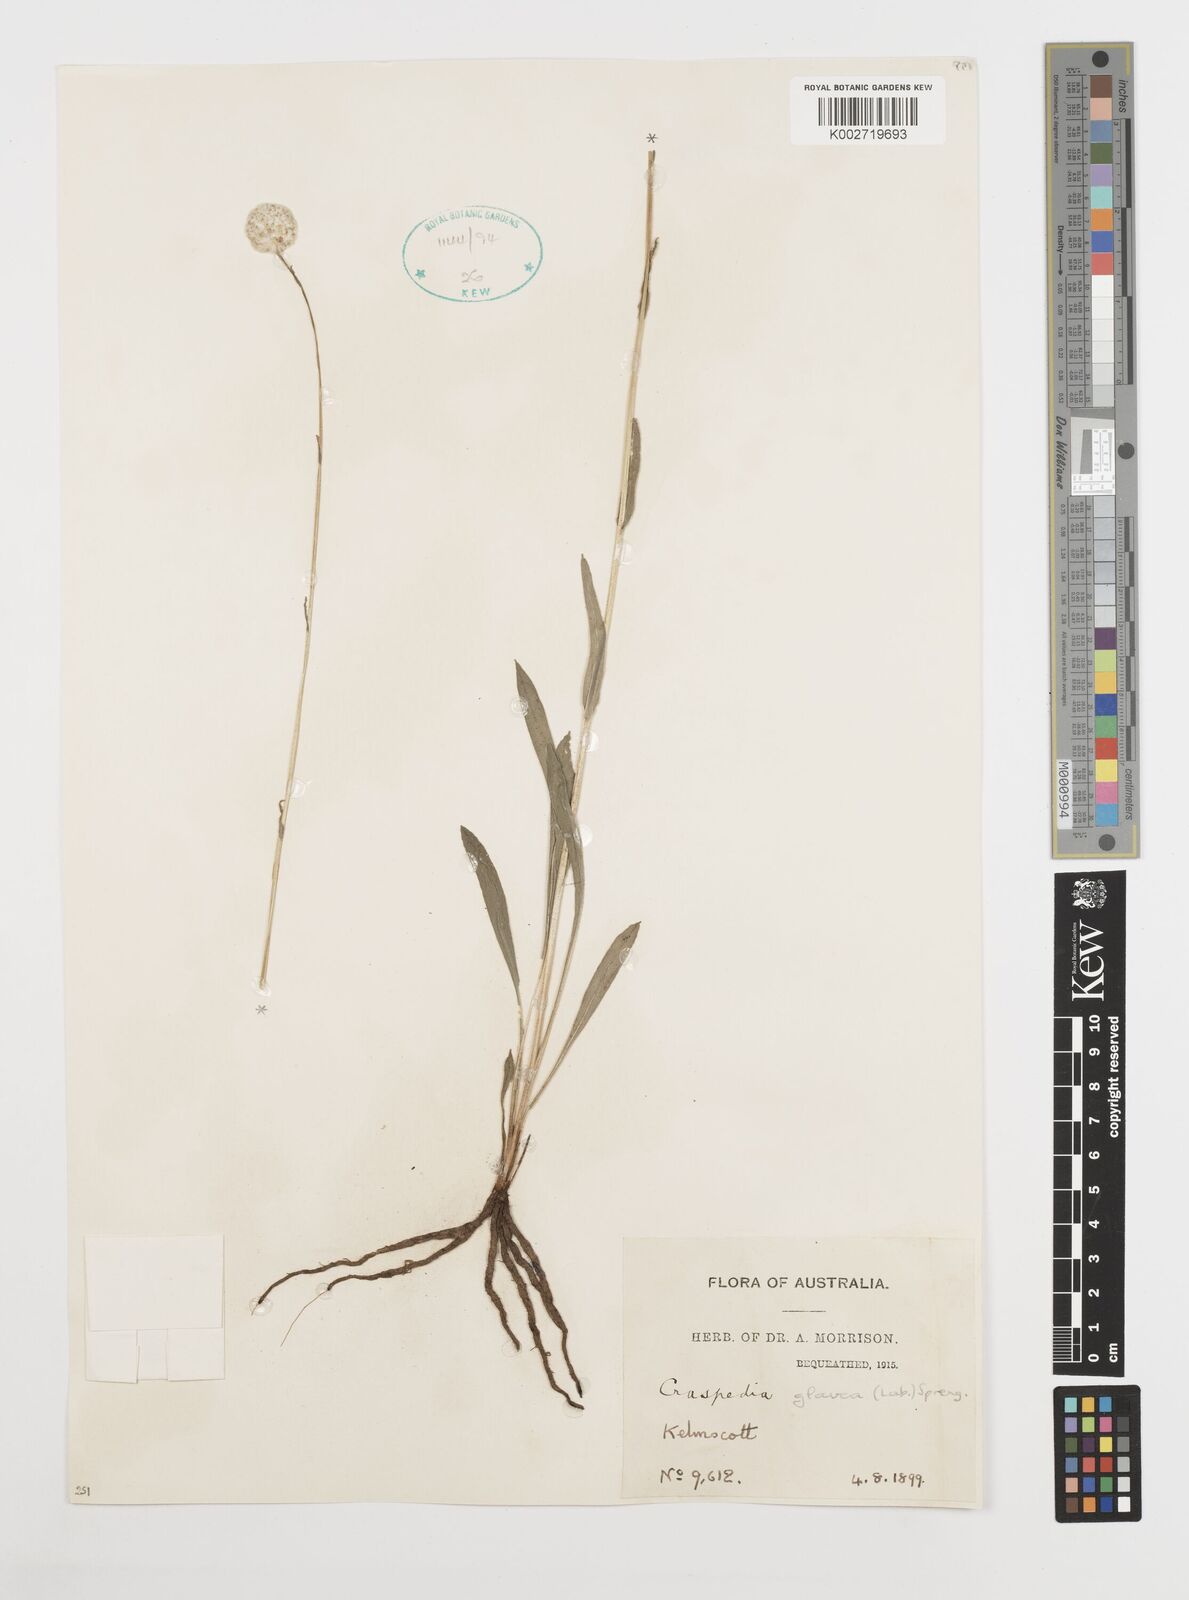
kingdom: Plantae
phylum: Tracheophyta
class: Magnoliopsida
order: Asterales
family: Asteraceae
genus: Craspedia
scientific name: Craspedia glauca
